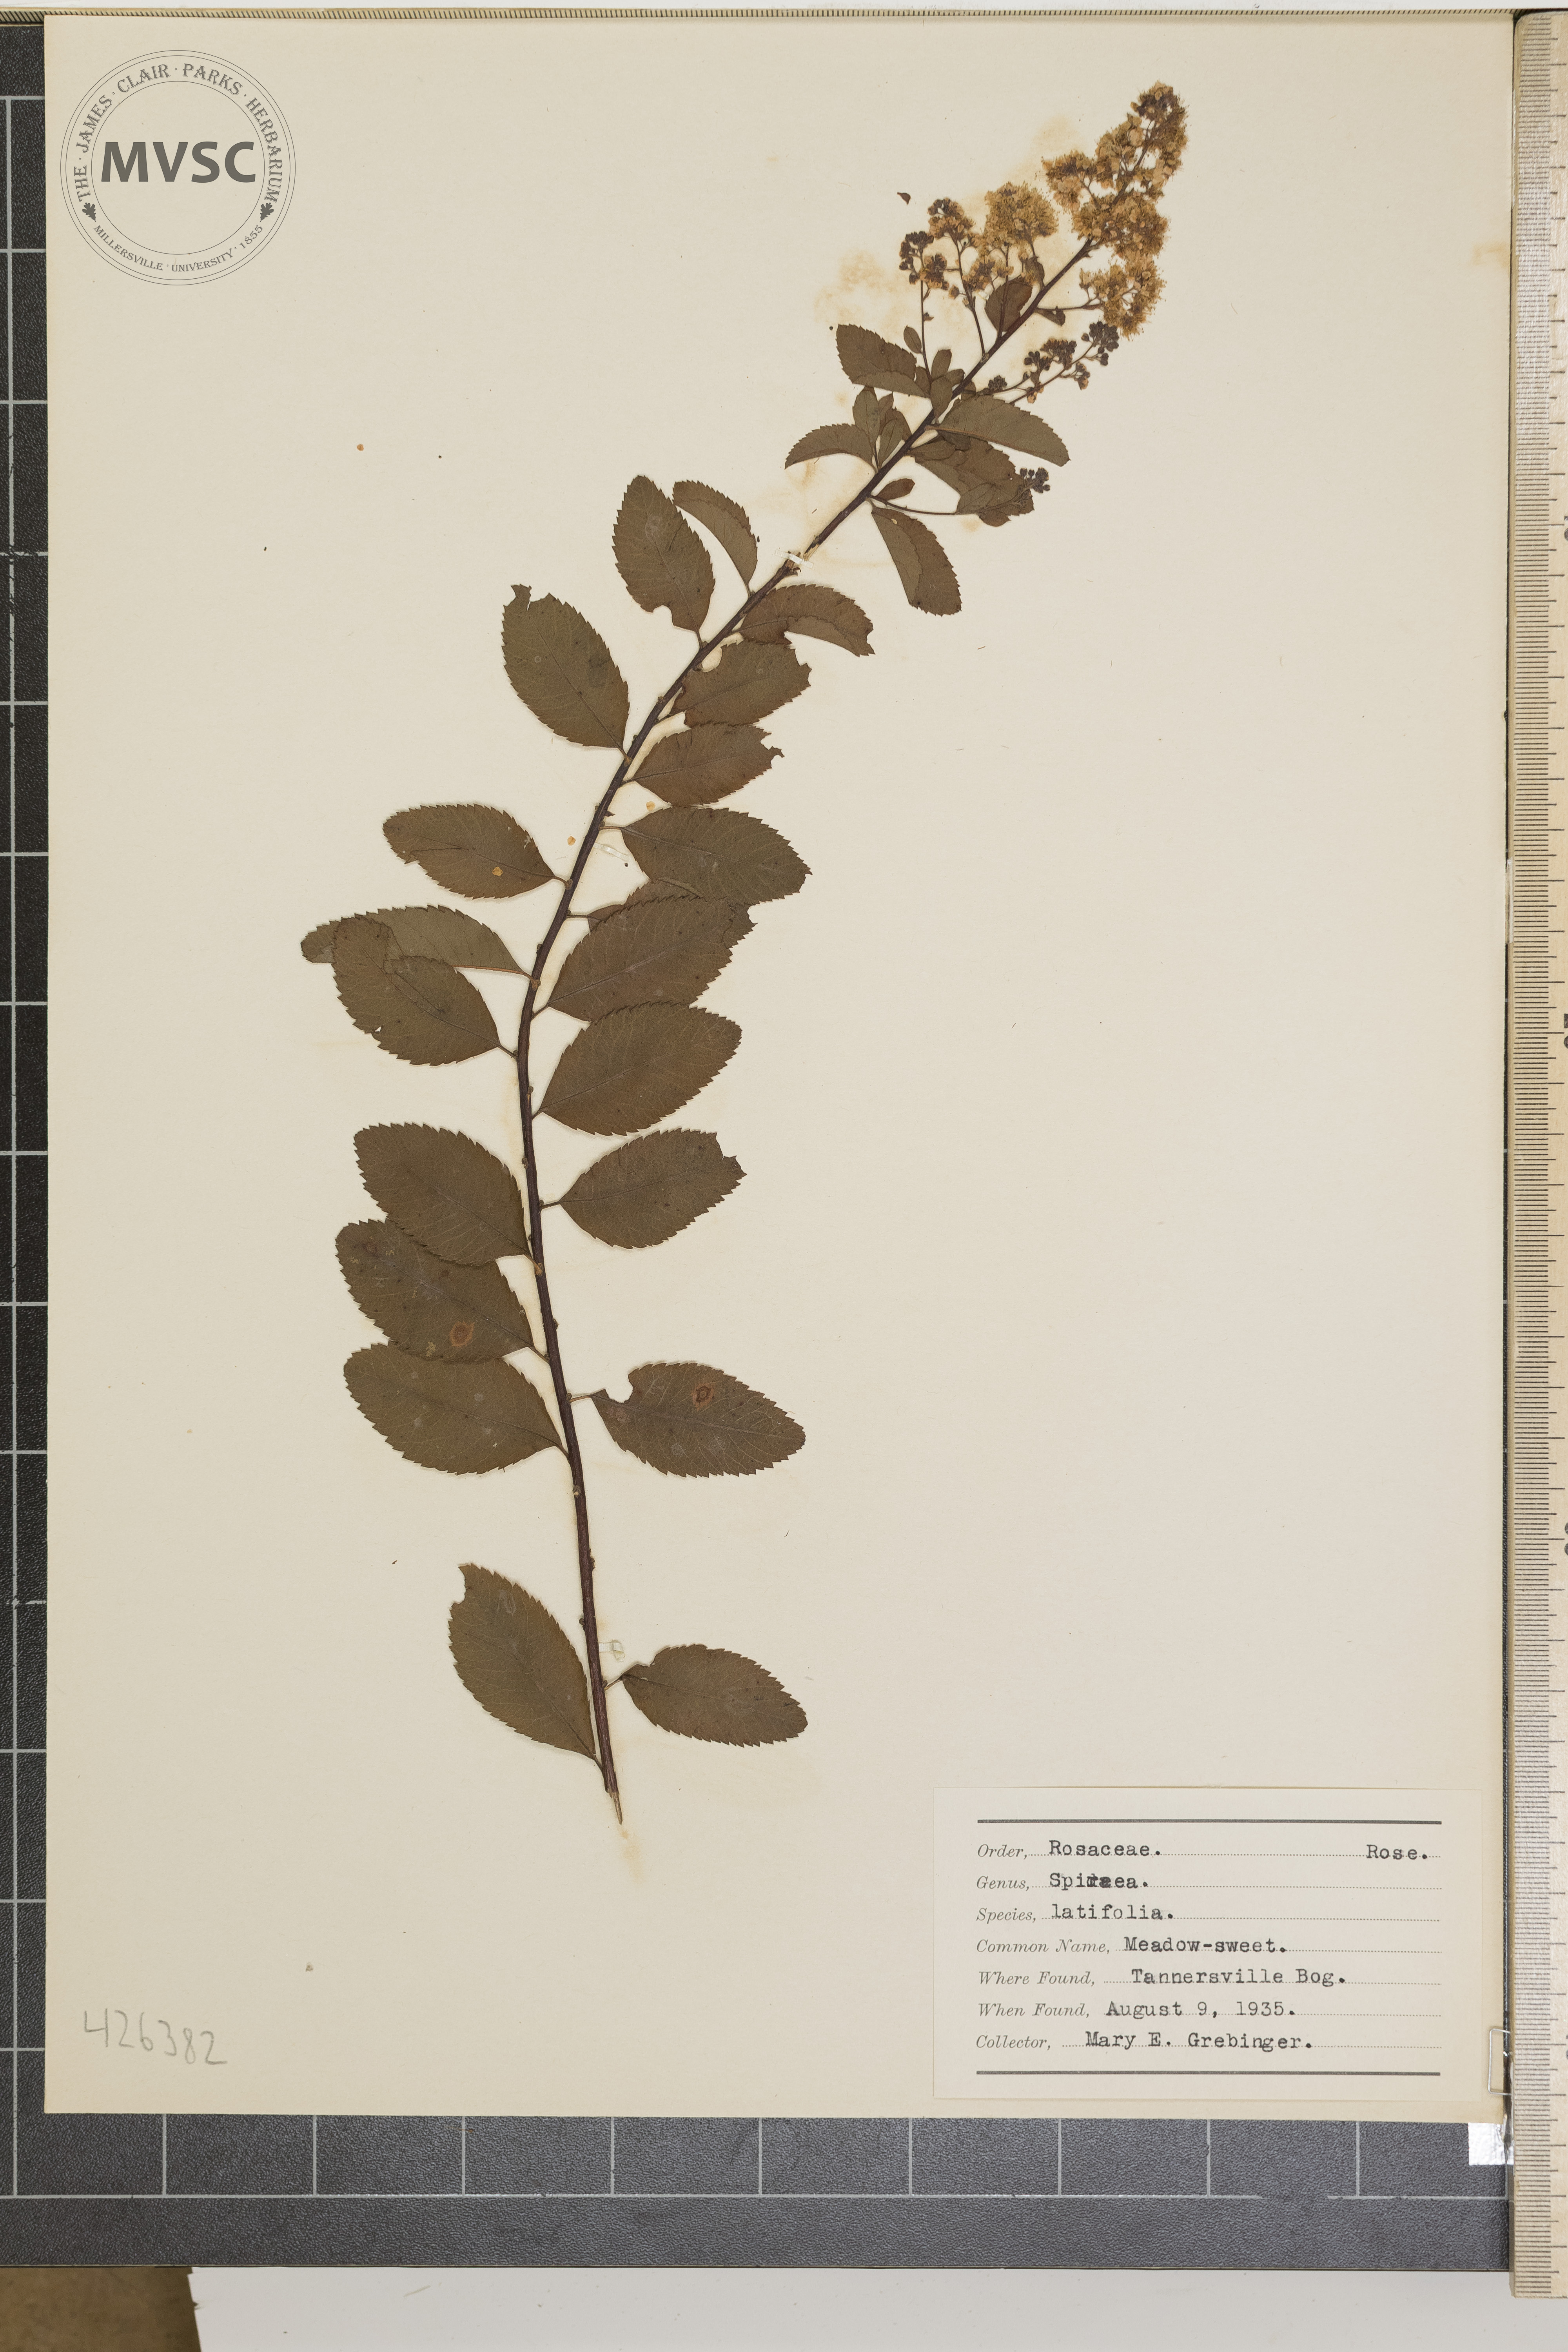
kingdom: Plantae
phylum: Tracheophyta
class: Magnoliopsida
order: Rosales
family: Rosaceae
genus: Spiraea
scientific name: Spiraea alba
